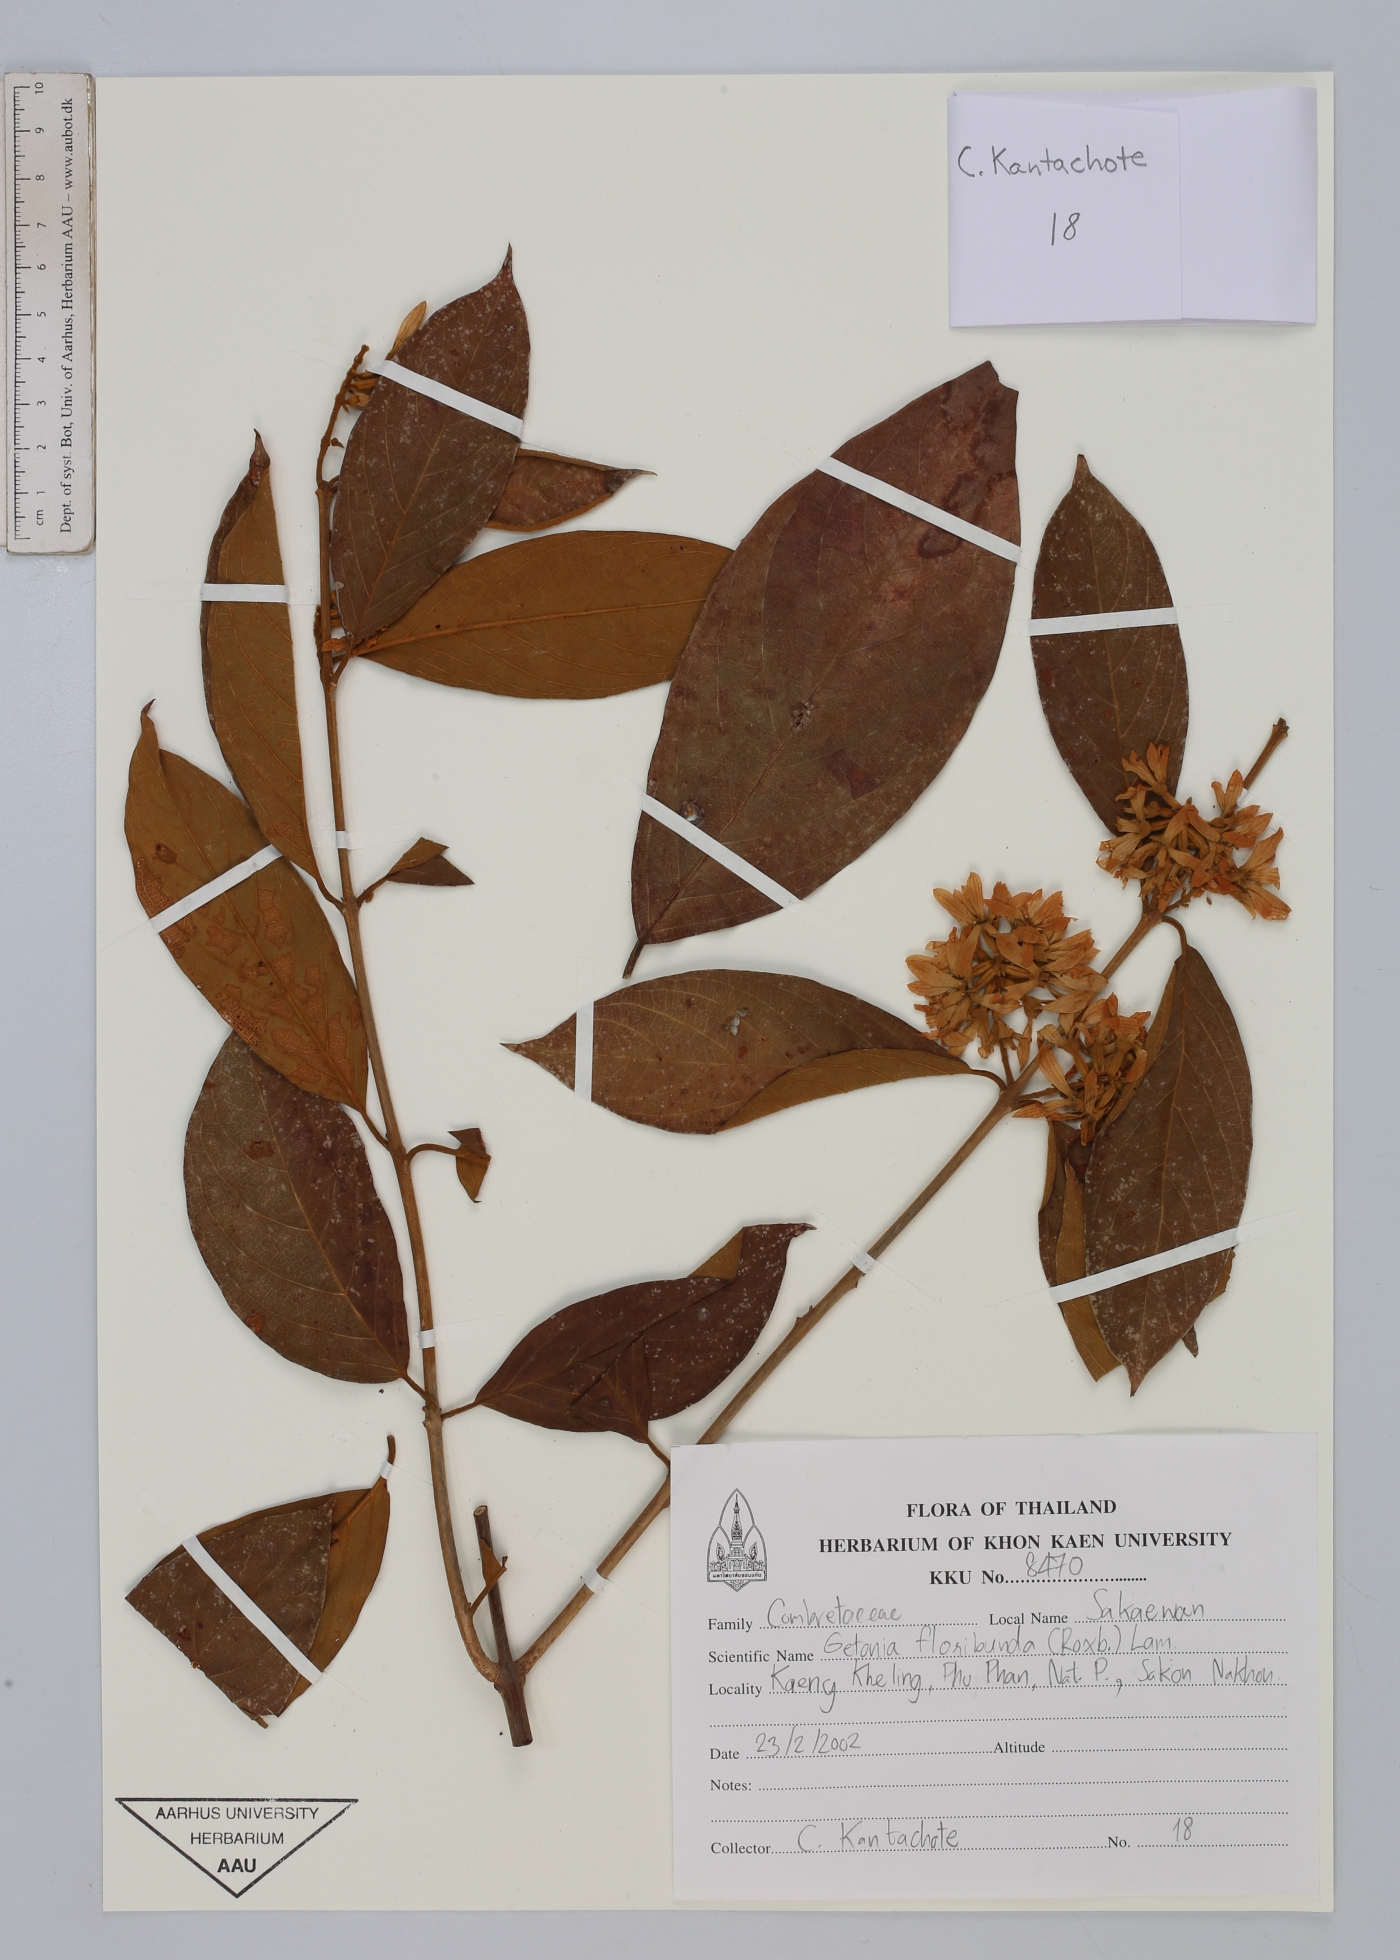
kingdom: Plantae
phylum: Tracheophyta
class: Magnoliopsida
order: Myrtales
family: Combretaceae
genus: Getonia
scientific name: Getonia floribunda
